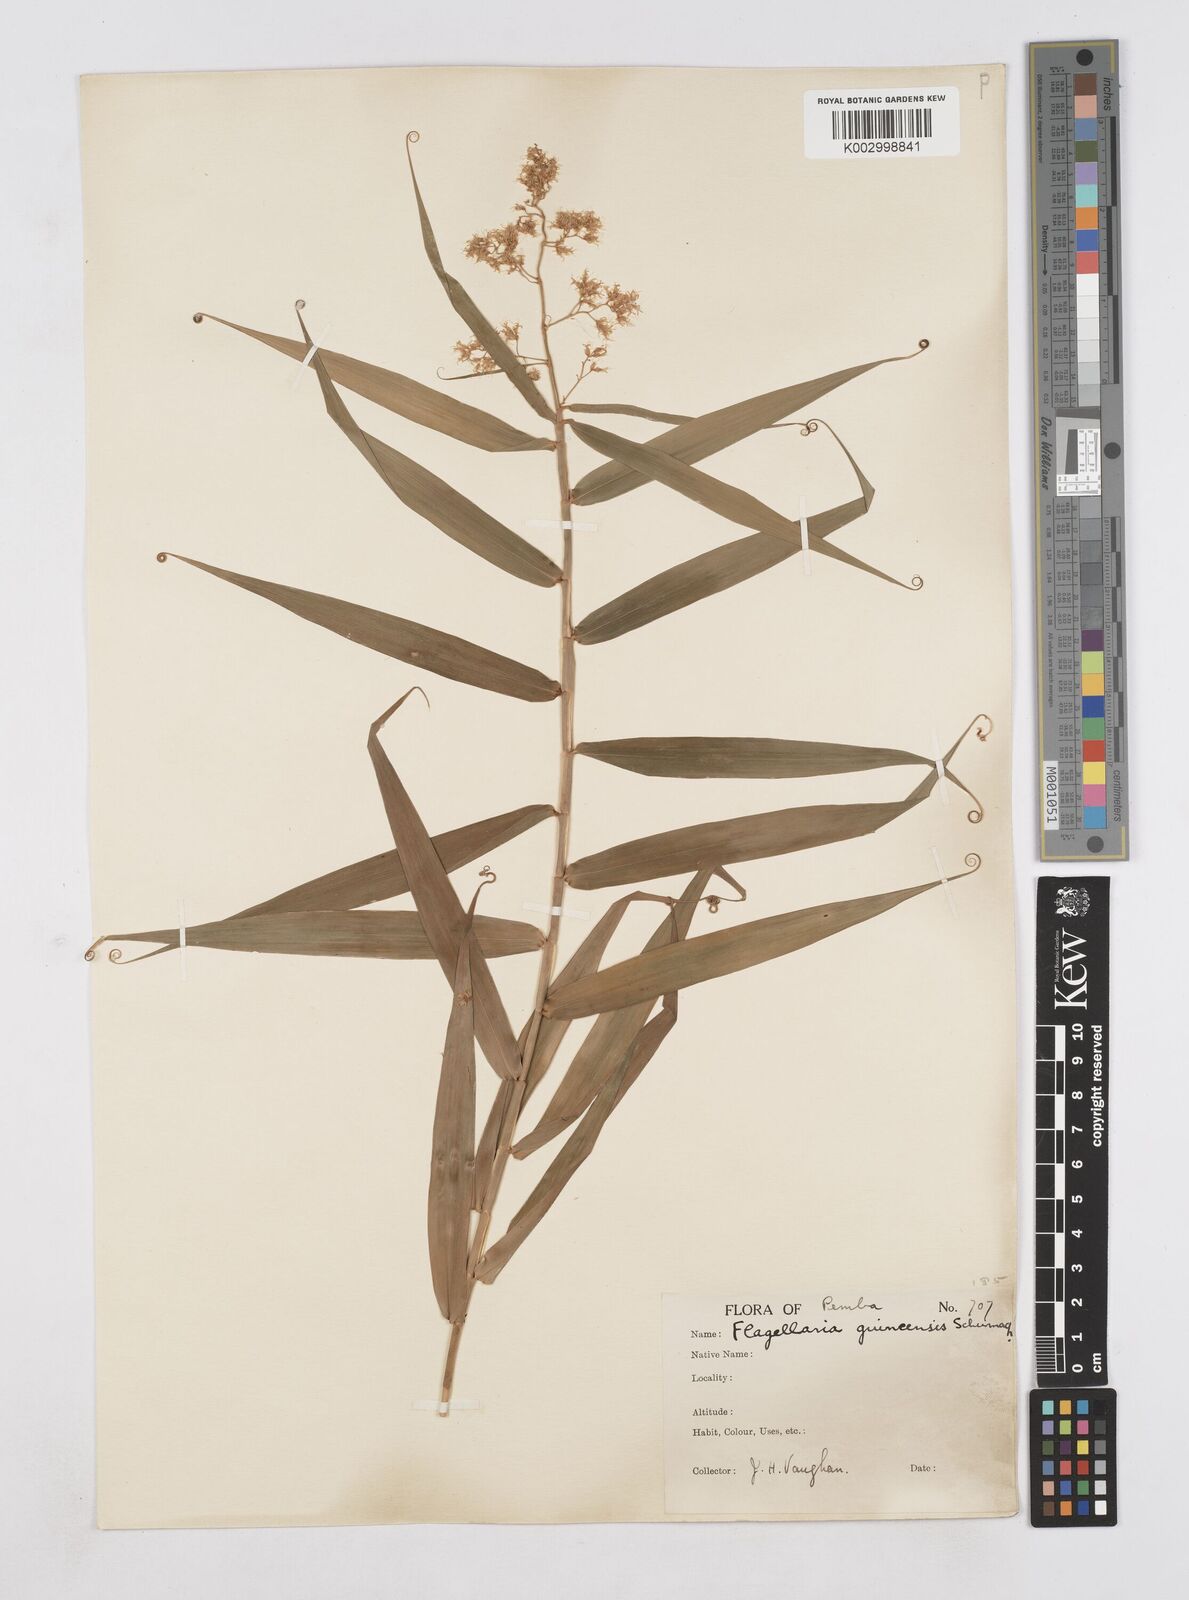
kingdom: Plantae
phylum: Tracheophyta
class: Liliopsida
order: Poales
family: Flagellariaceae
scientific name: Flagellariaceae
